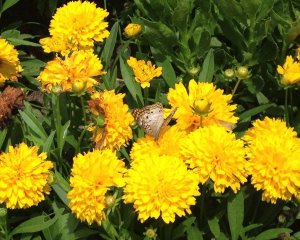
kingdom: Animalia
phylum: Arthropoda
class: Insecta
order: Lepidoptera
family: Nymphalidae
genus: Anartia
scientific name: Anartia jatrophae
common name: White Peacock
